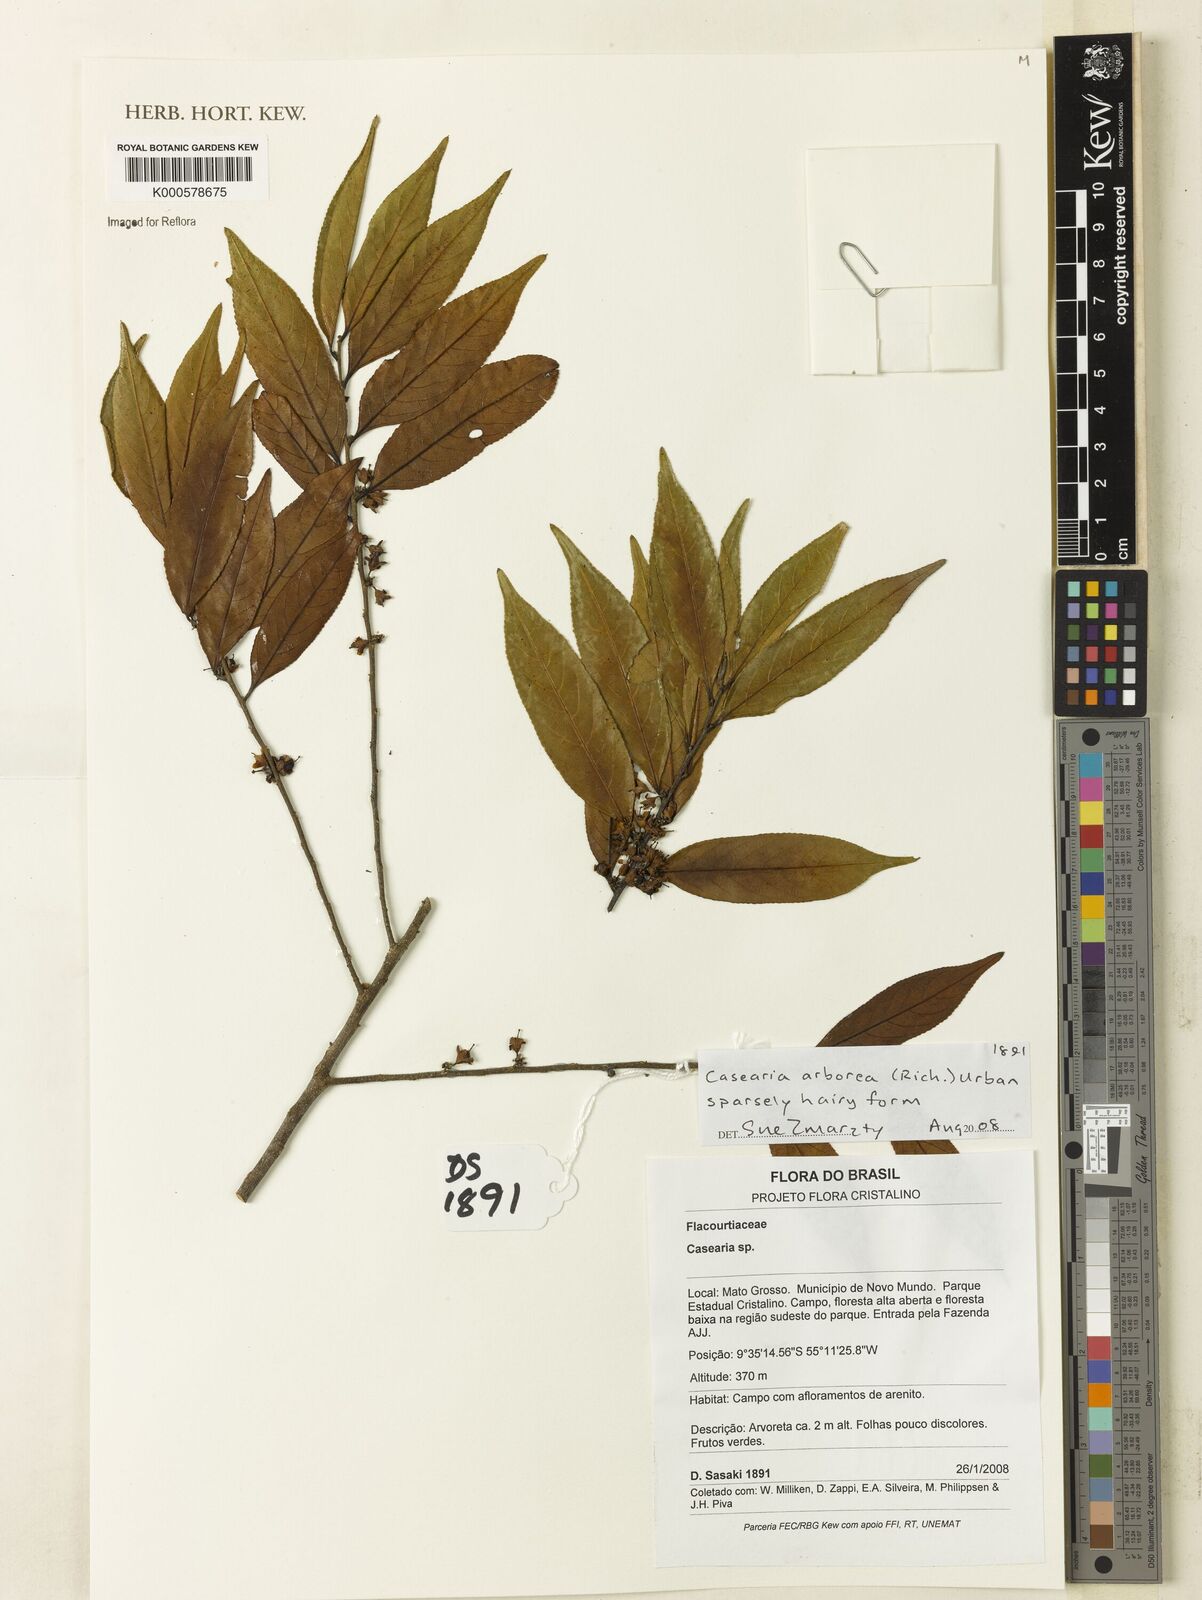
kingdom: Plantae
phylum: Tracheophyta
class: Magnoliopsida
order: Malpighiales
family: Salicaceae
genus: Casearia
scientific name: Casearia arborea
